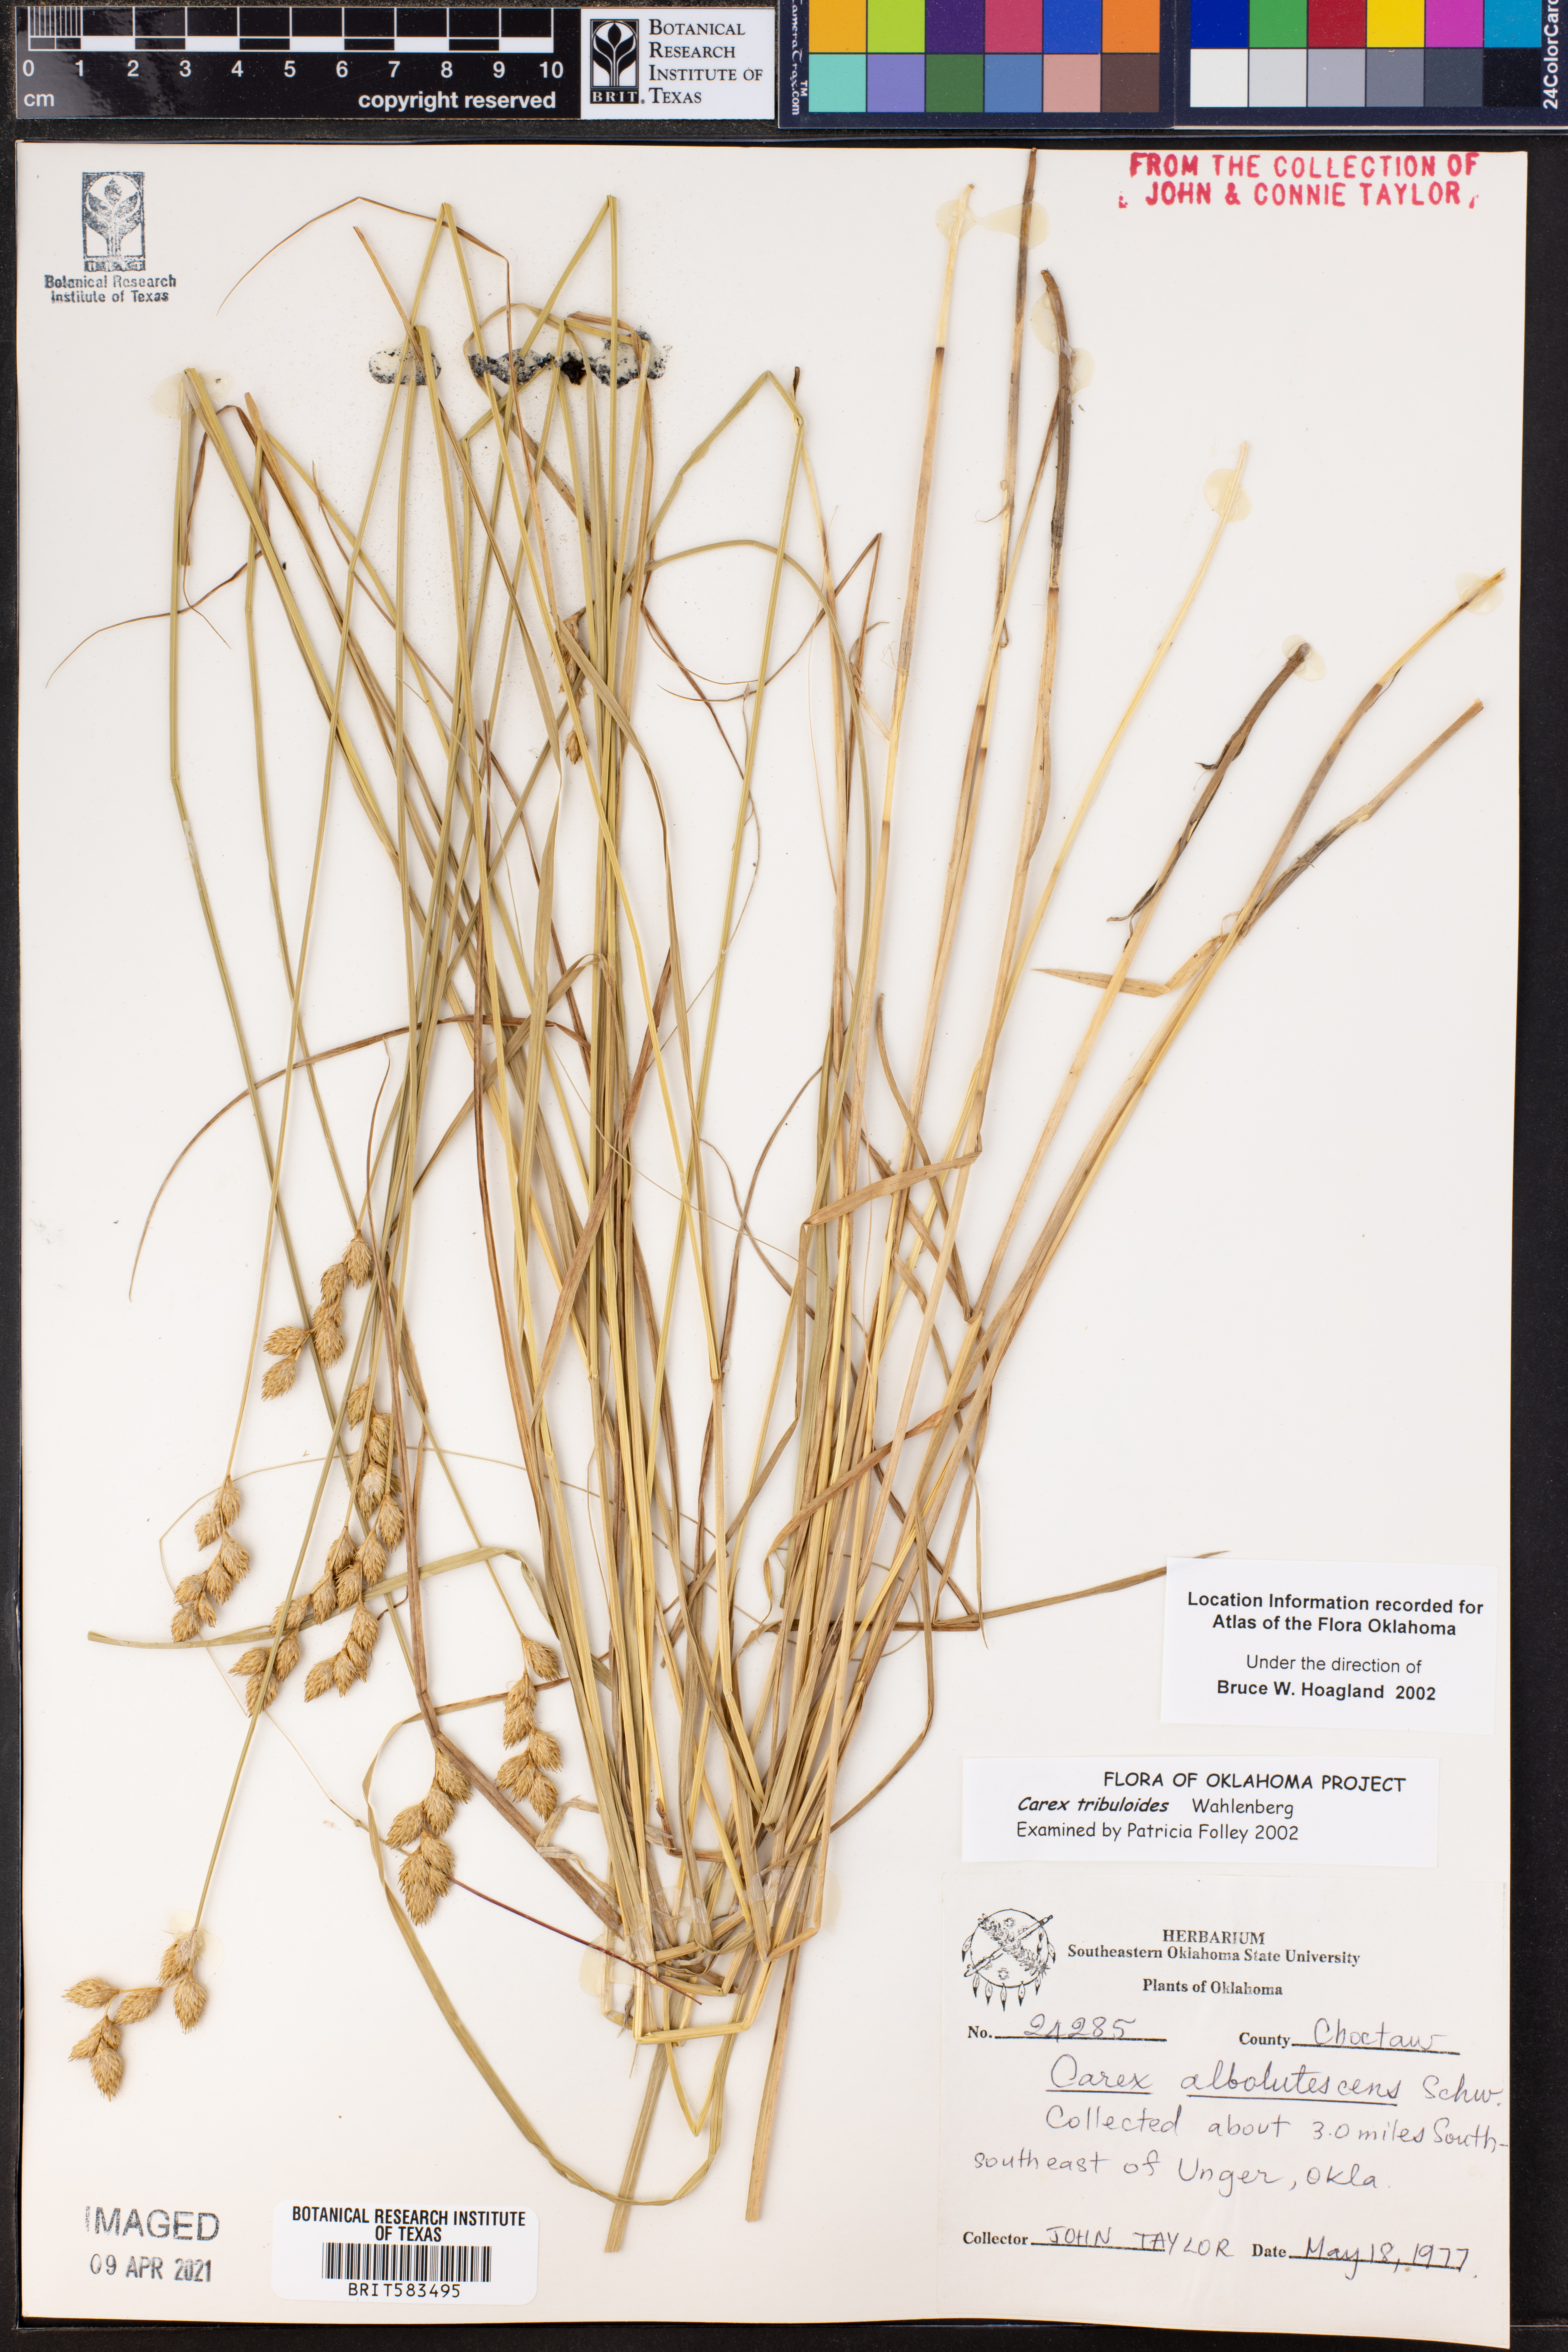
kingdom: Plantae
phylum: Tracheophyta
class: Liliopsida
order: Poales
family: Cyperaceae
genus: Carex
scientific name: Carex tribuloides
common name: Blunt broom sedge
